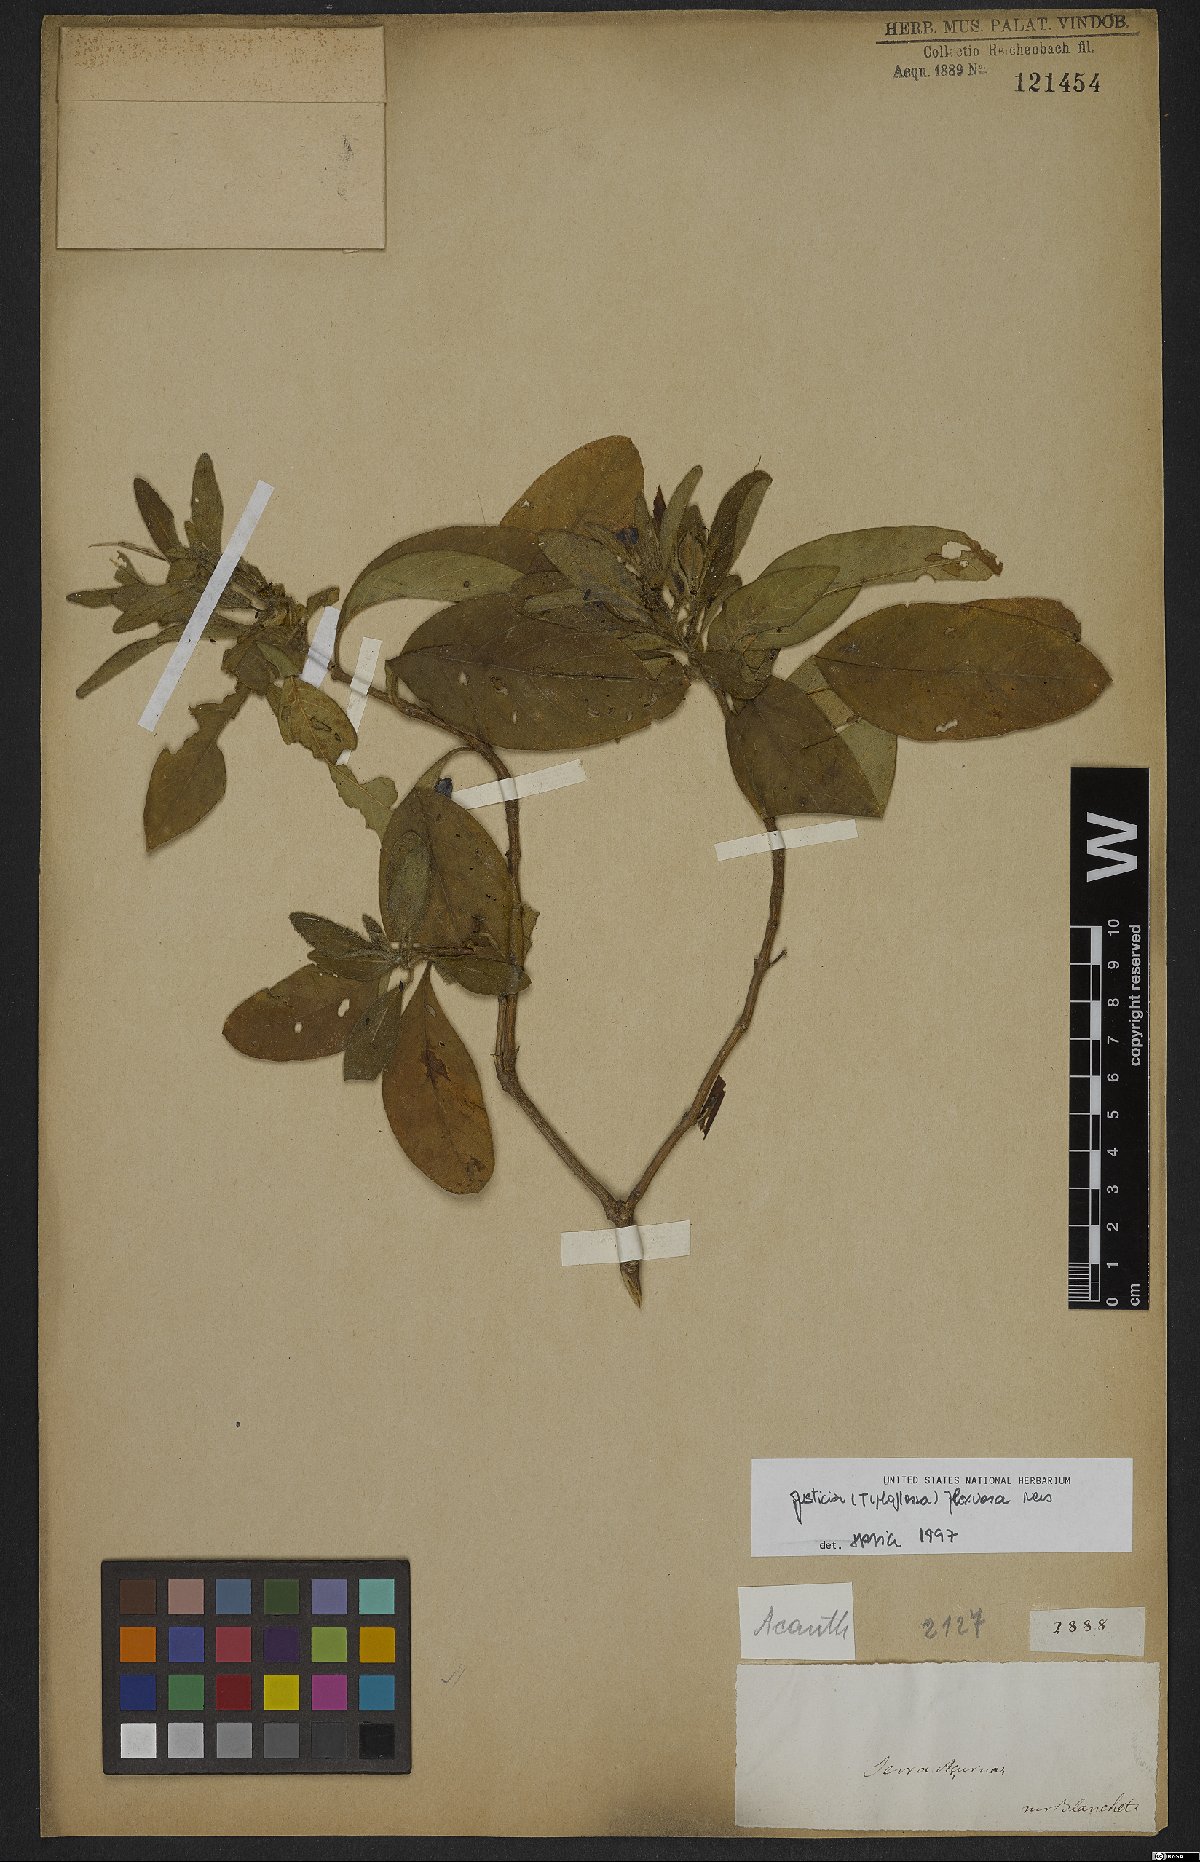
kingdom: Plantae
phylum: Tracheophyta
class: Magnoliopsida
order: Lamiales
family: Acanthaceae
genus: Poikilacanthus
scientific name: Poikilacanthus glandulosus
